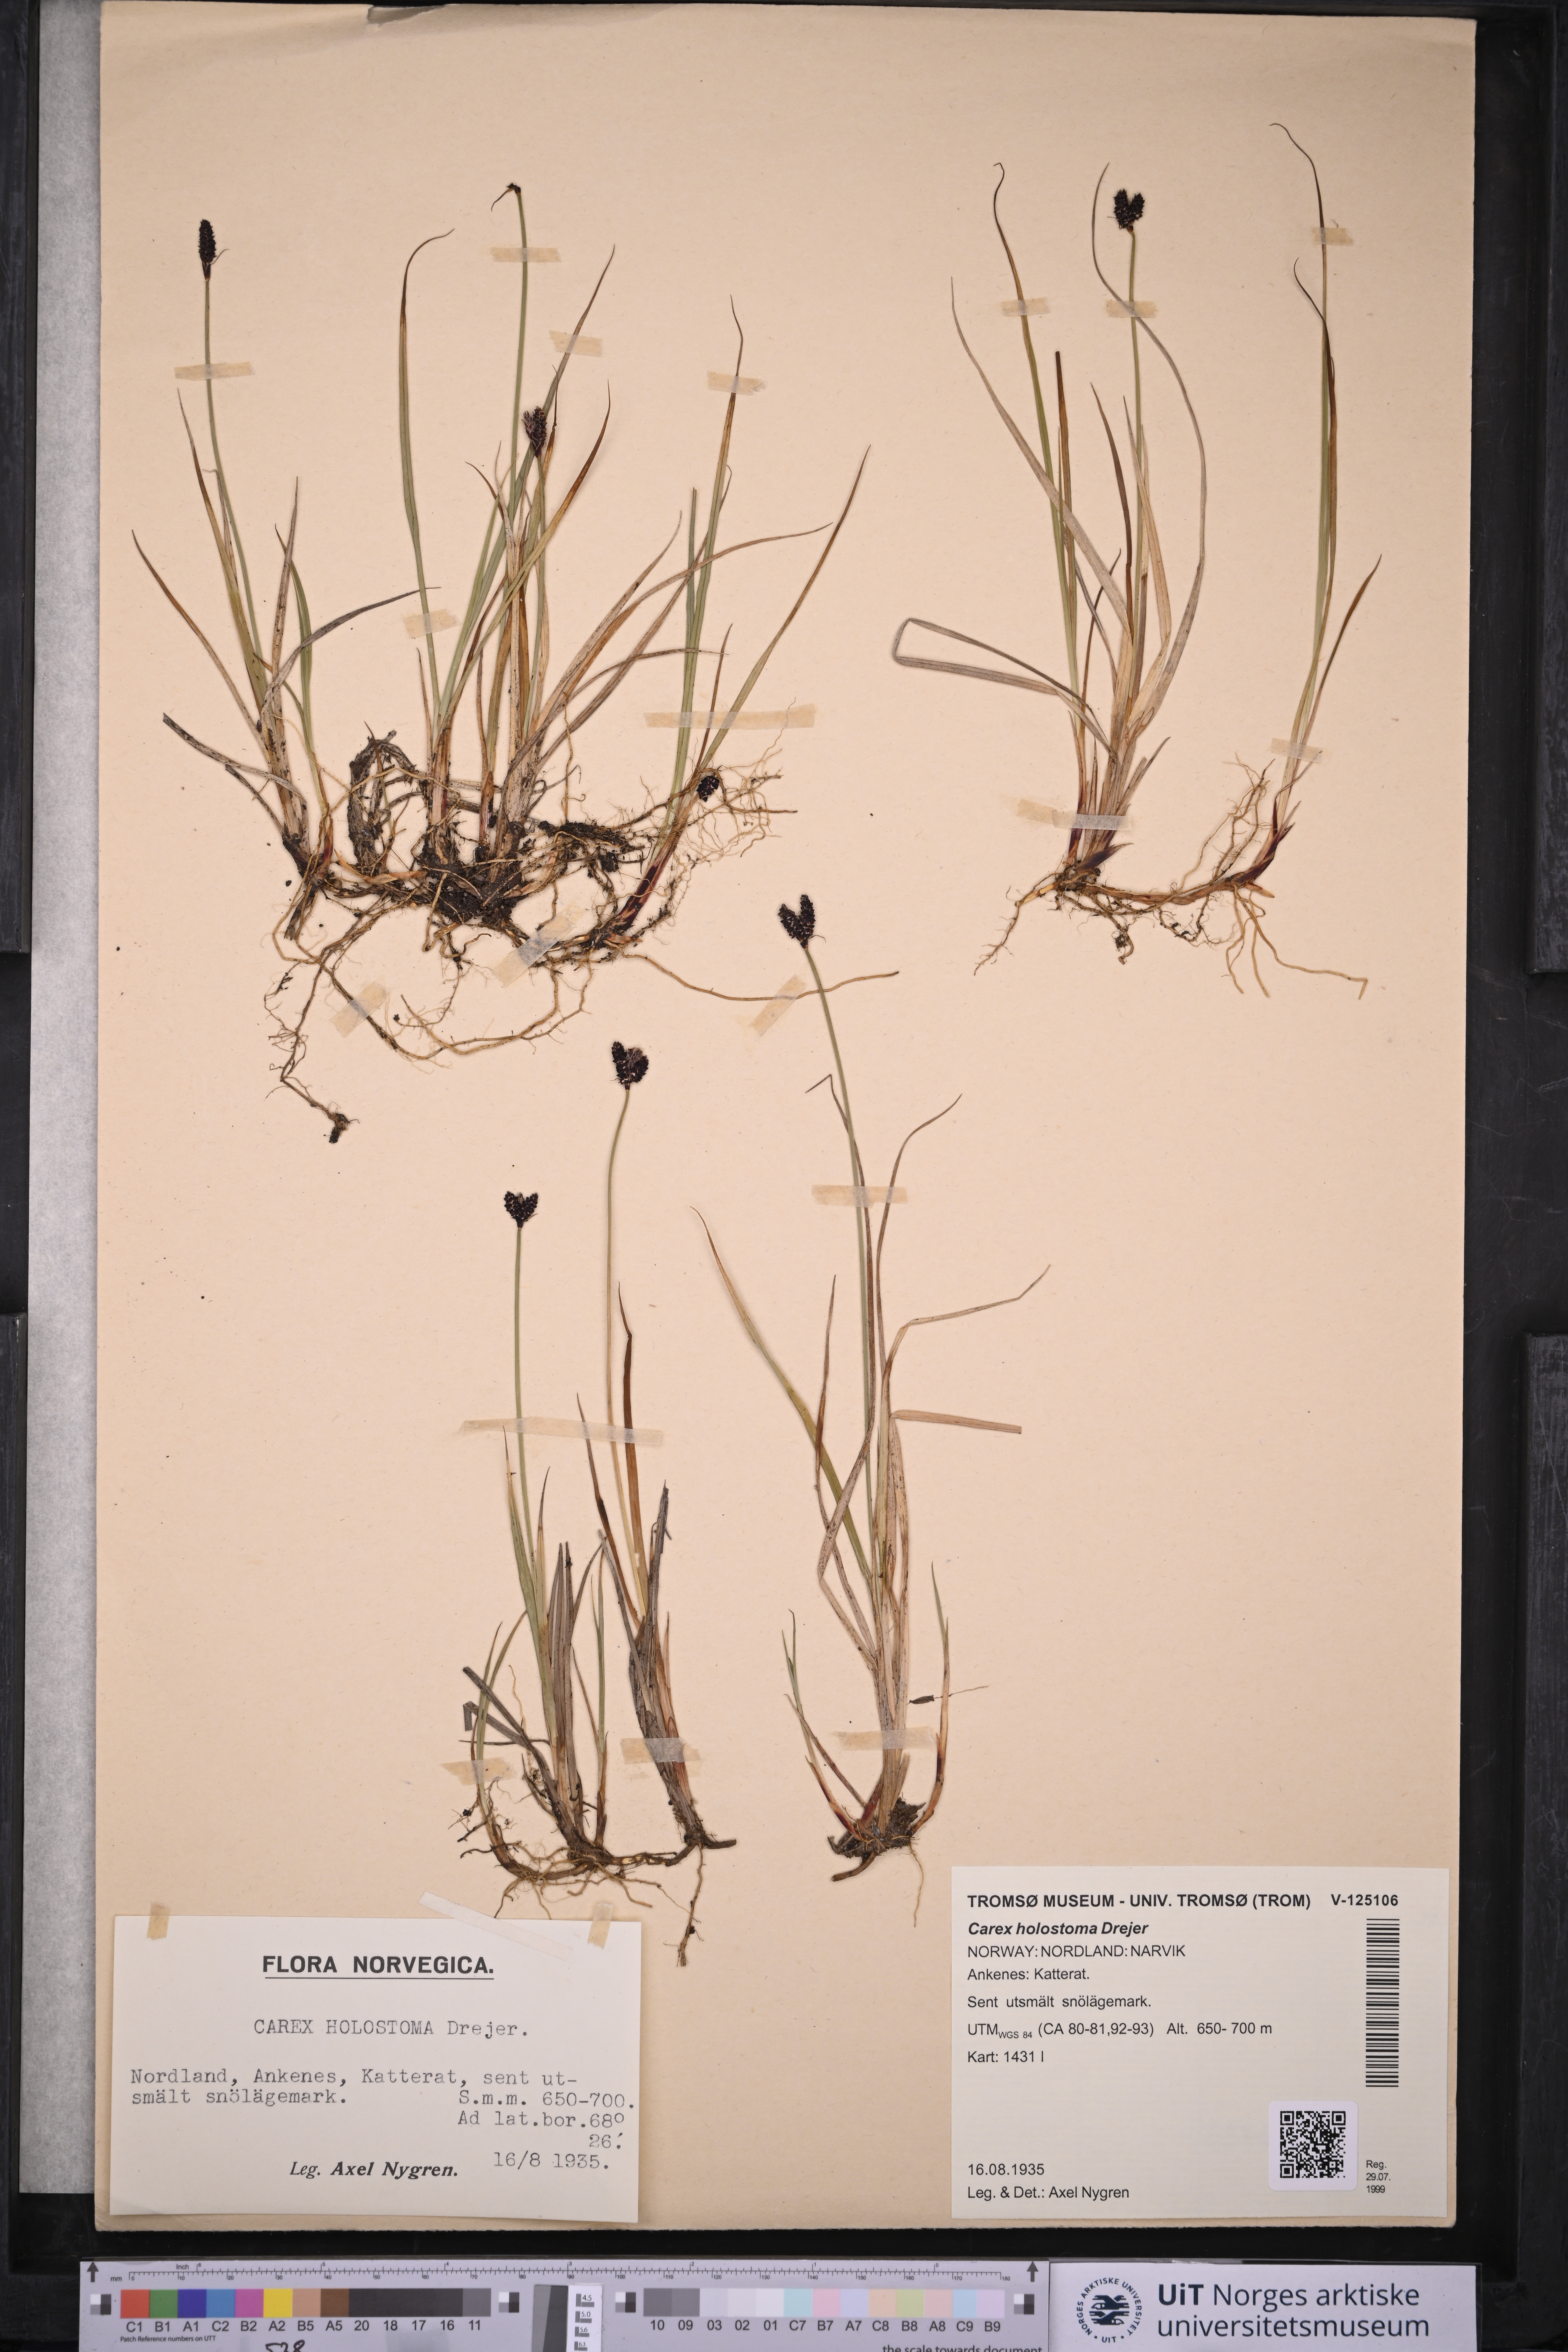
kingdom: Plantae
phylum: Tracheophyta
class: Liliopsida
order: Poales
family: Cyperaceae
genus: Carex
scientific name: Carex holostoma
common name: Arctic marsh sedge
